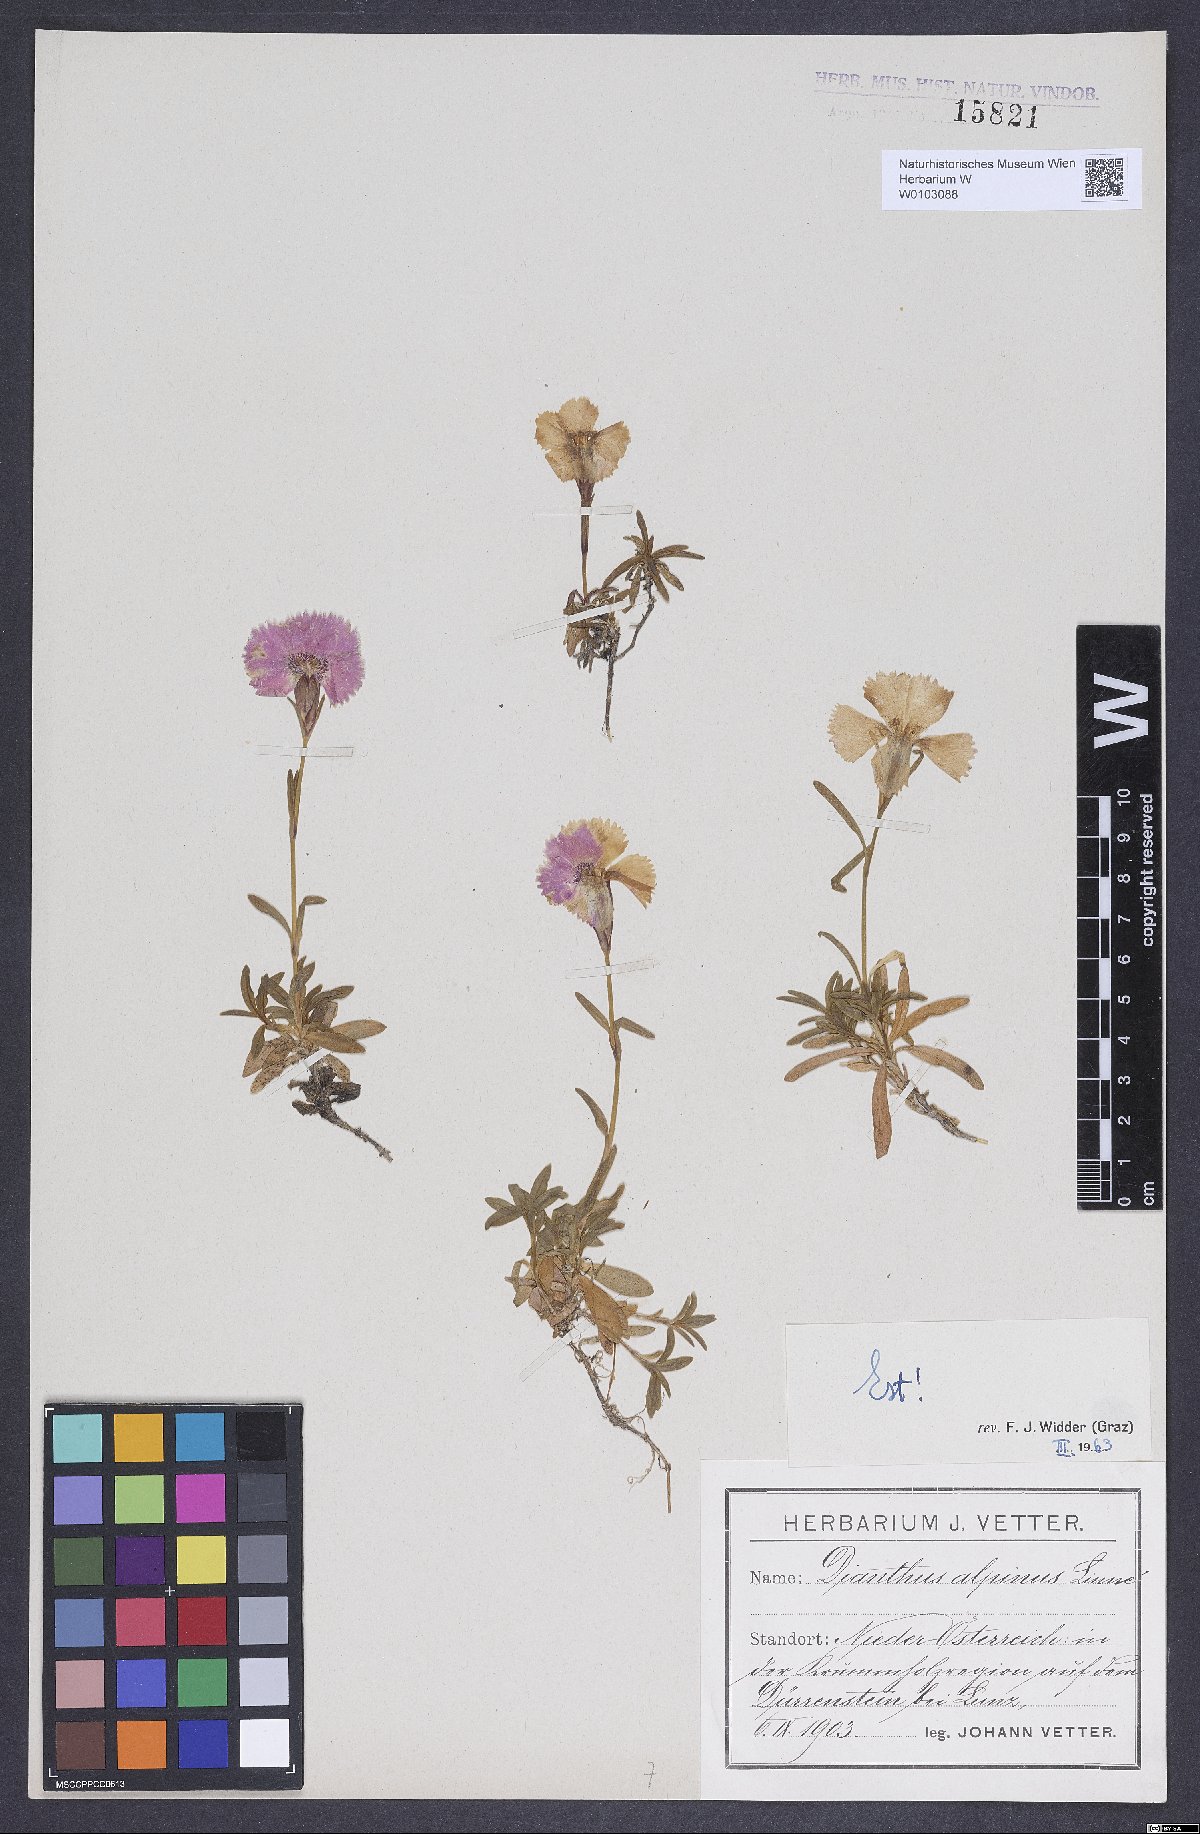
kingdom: Plantae
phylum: Tracheophyta
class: Magnoliopsida
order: Caryophyllales
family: Caryophyllaceae
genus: Dianthus
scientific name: Dianthus alpinus
